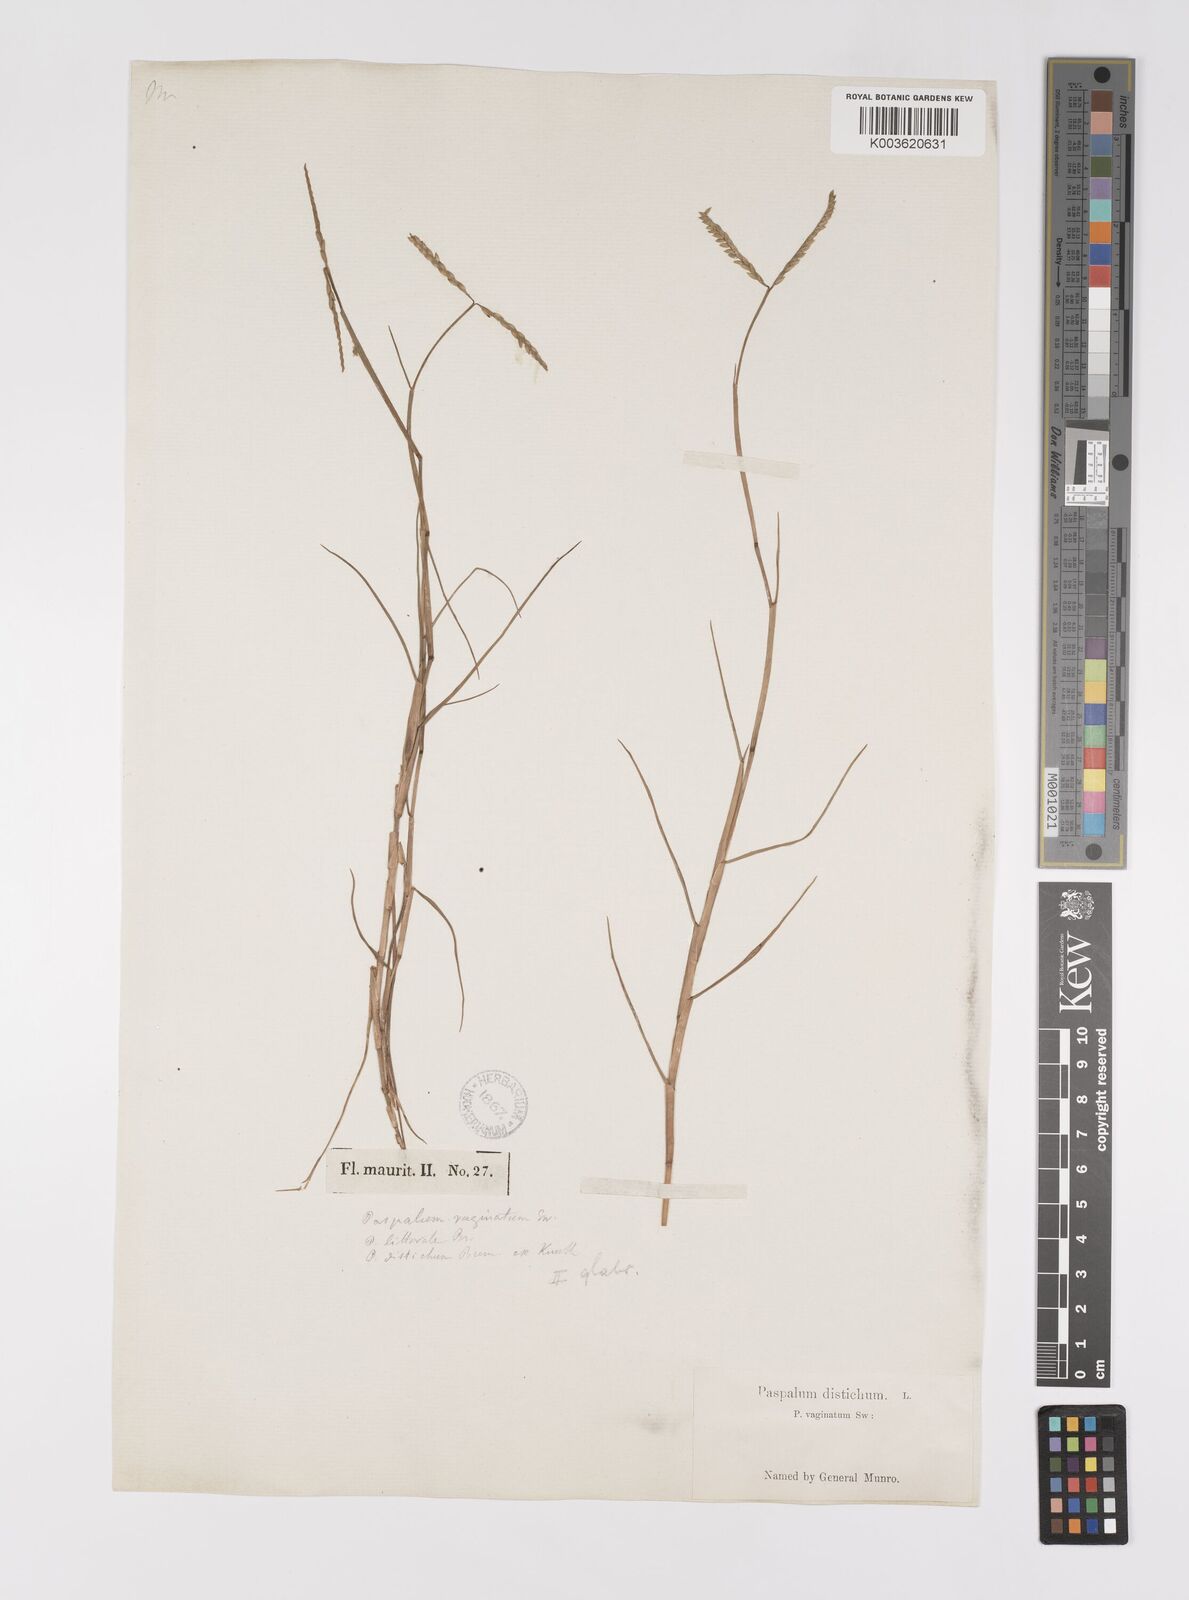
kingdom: Plantae
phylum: Tracheophyta
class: Liliopsida
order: Poales
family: Poaceae
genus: Paspalum
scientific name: Paspalum vaginatum
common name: Seashore paspalum
